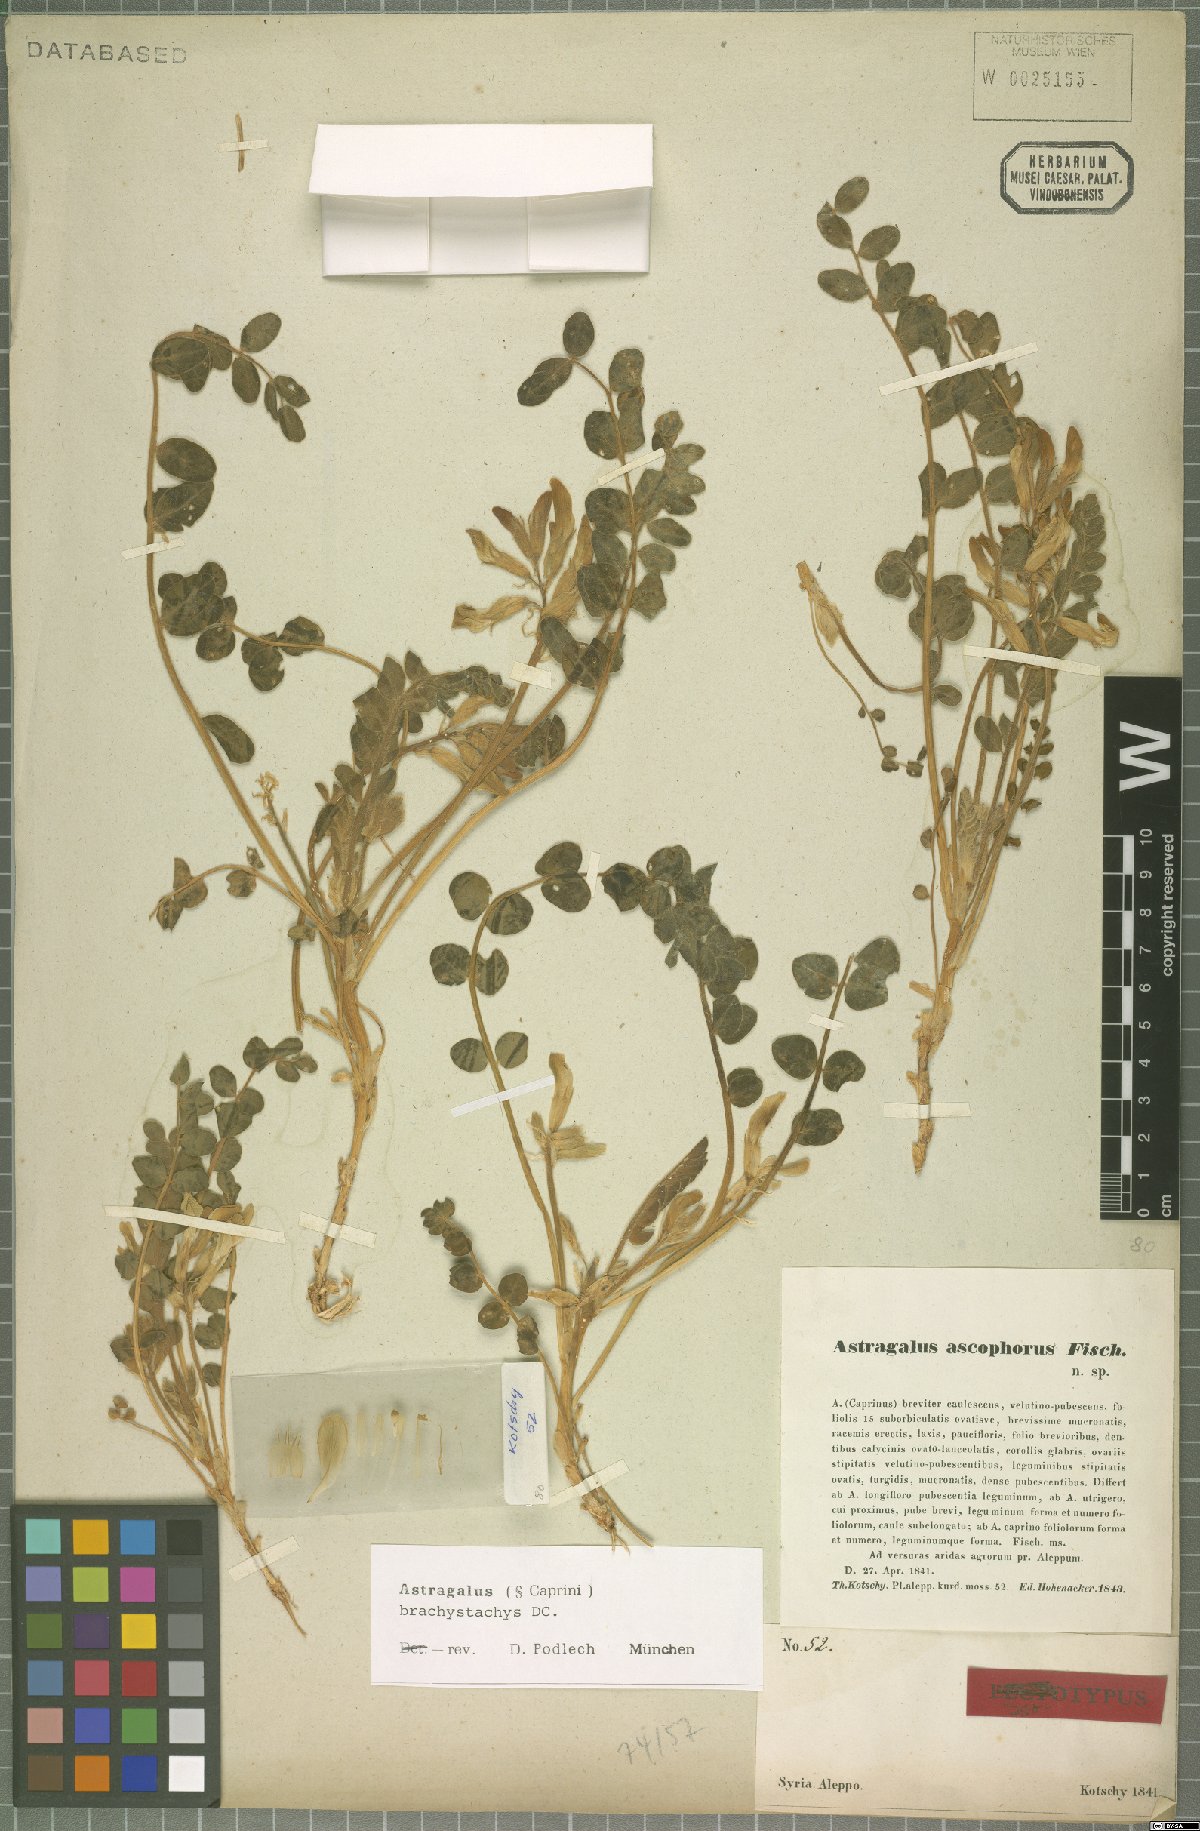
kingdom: Plantae
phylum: Tracheophyta
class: Magnoliopsida
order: Fabales
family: Fabaceae
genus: Astragalus
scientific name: Astragalus brachystachys
